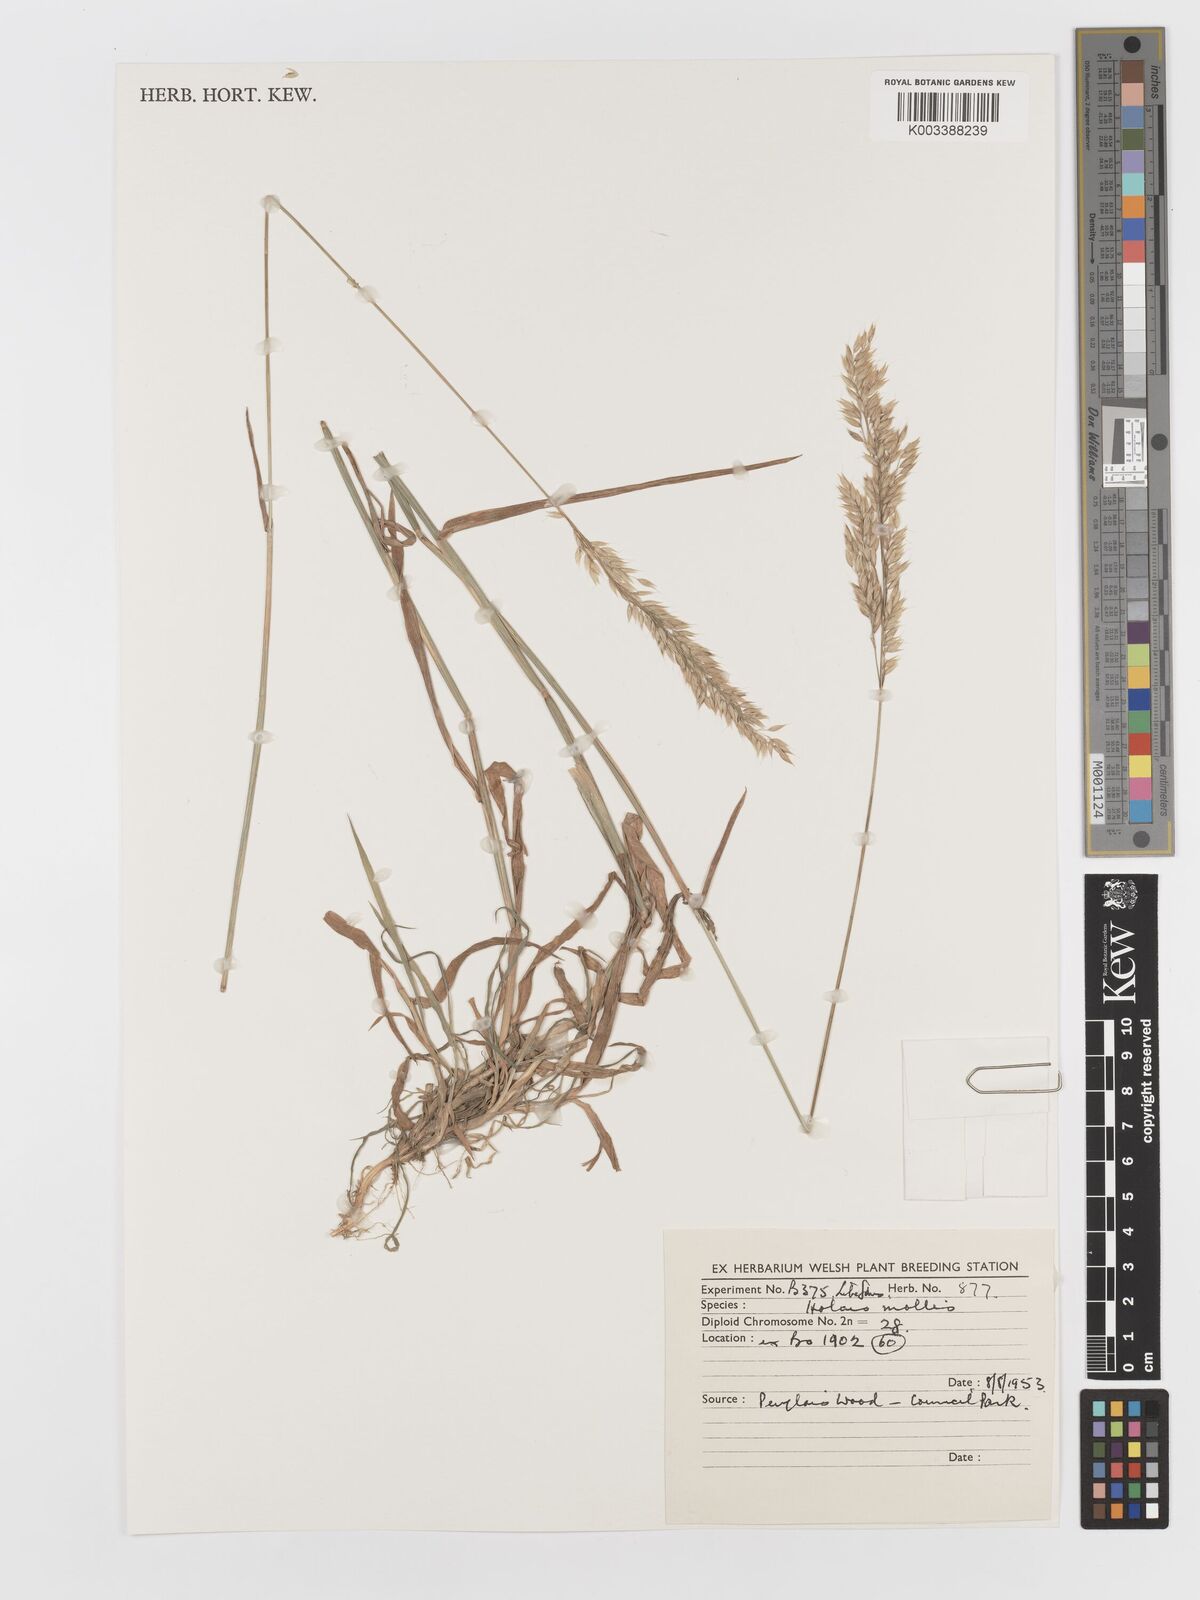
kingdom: Plantae
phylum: Tracheophyta
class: Liliopsida
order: Poales
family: Poaceae
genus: Holcus
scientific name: Holcus mollis
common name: Creeping velvetgrass
